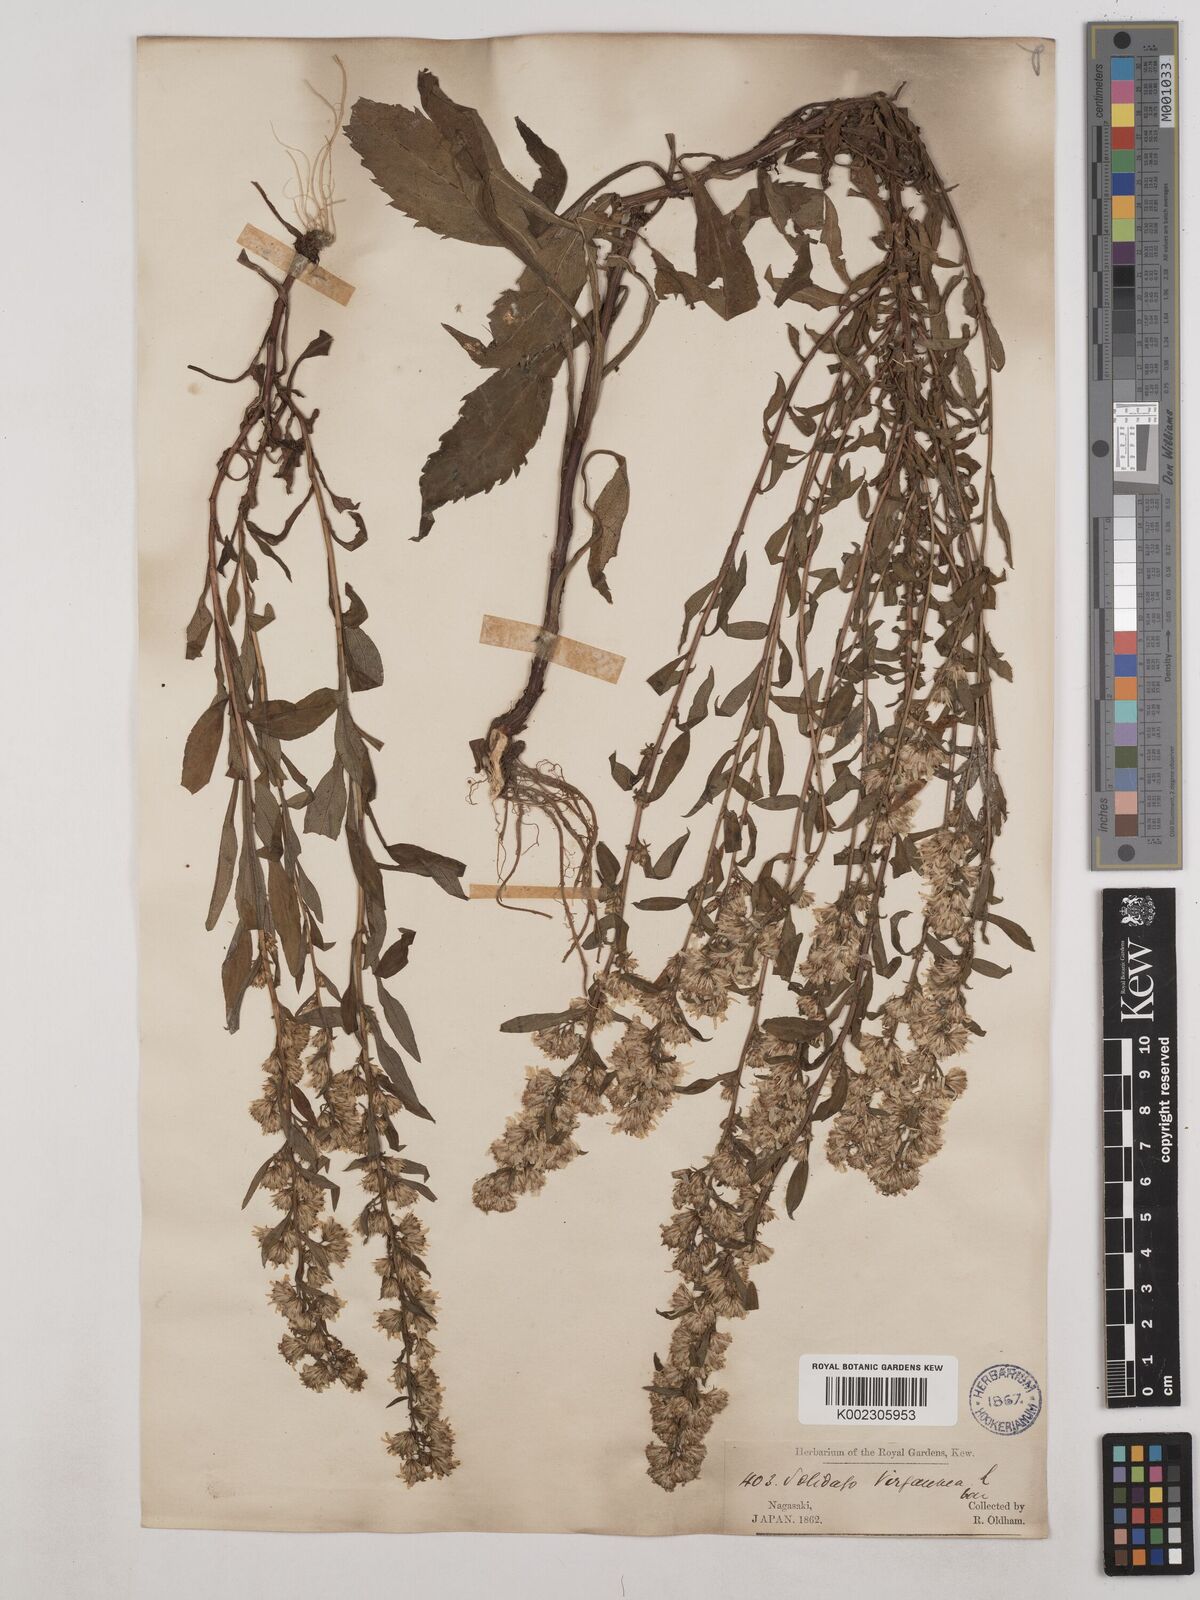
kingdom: Plantae
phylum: Tracheophyta
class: Magnoliopsida
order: Asterales
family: Asteraceae
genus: Solidago
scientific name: Solidago virgaurea
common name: Goldenrod
